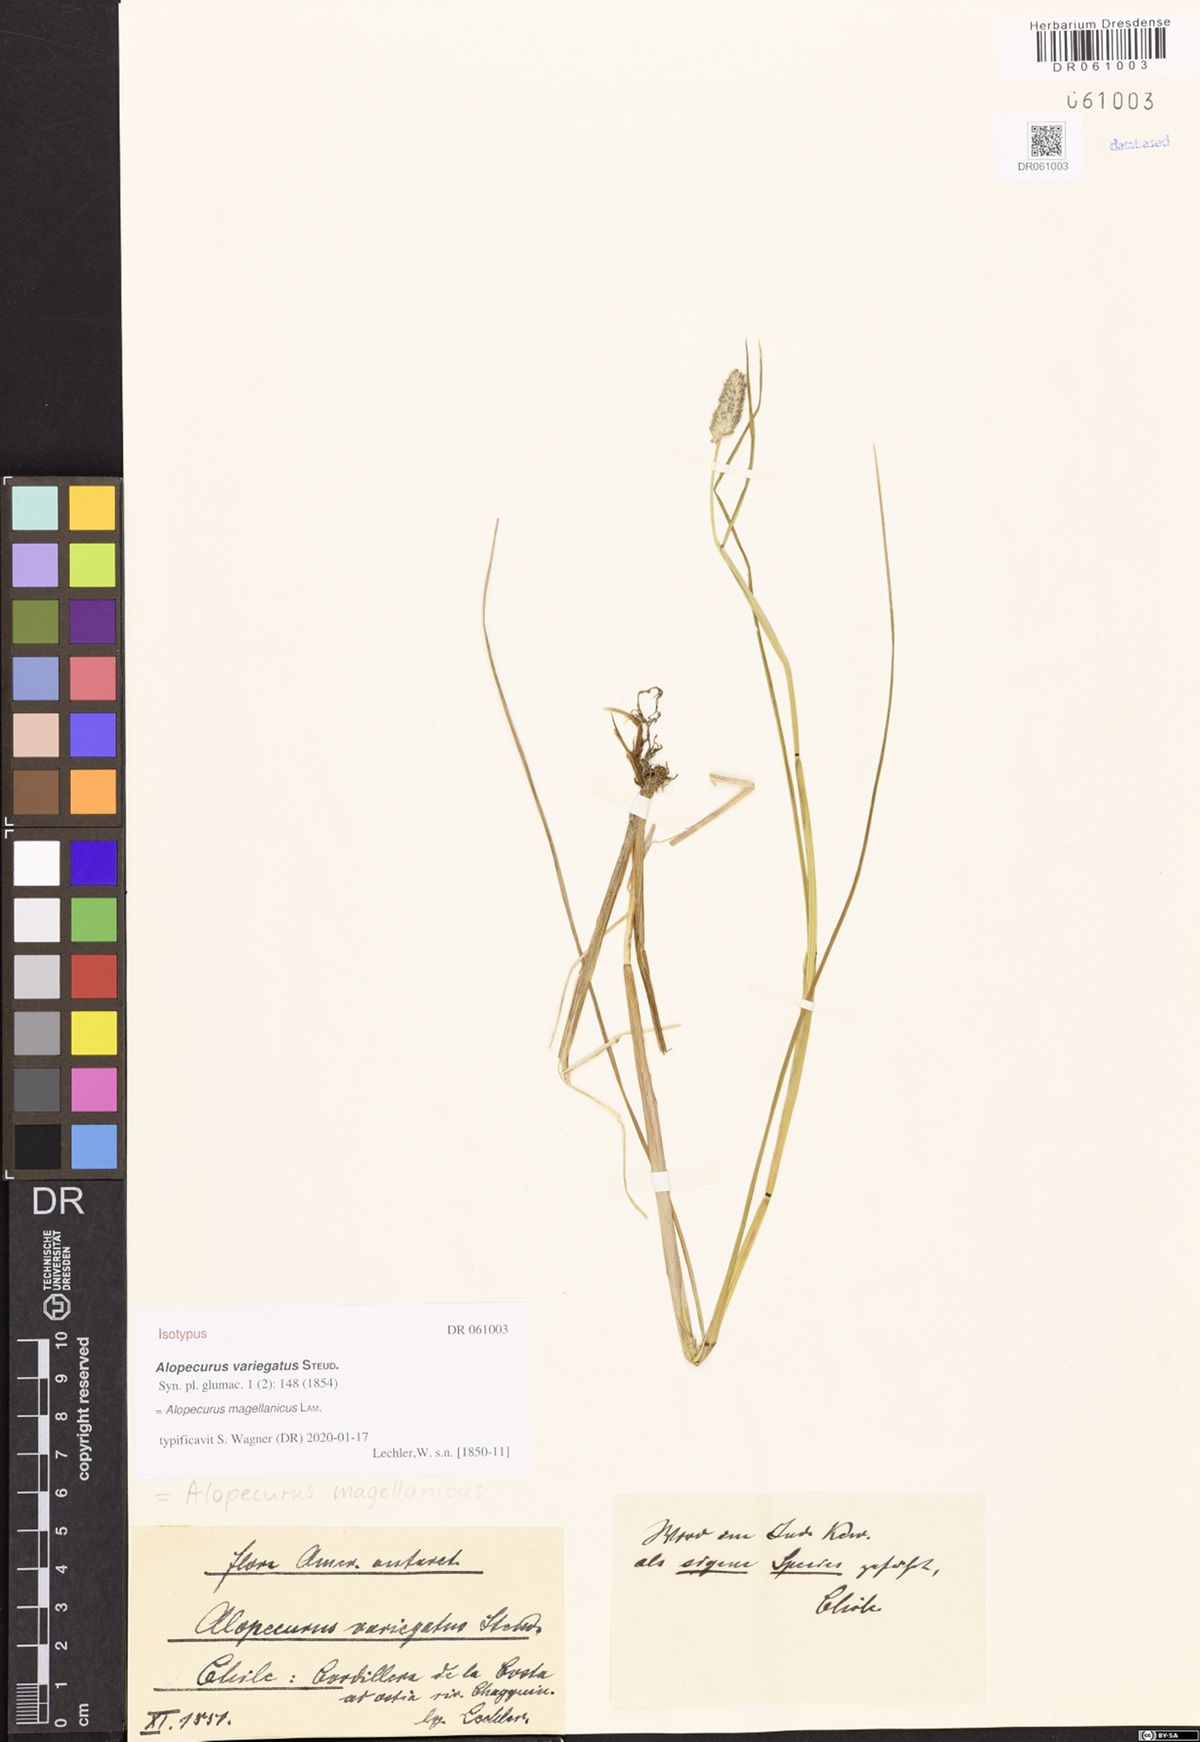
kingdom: Plantae
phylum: Tracheophyta
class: Liliopsida
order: Poales
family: Poaceae
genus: Alopecurus
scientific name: Alopecurus magellanicus
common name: Alpine foxtail
